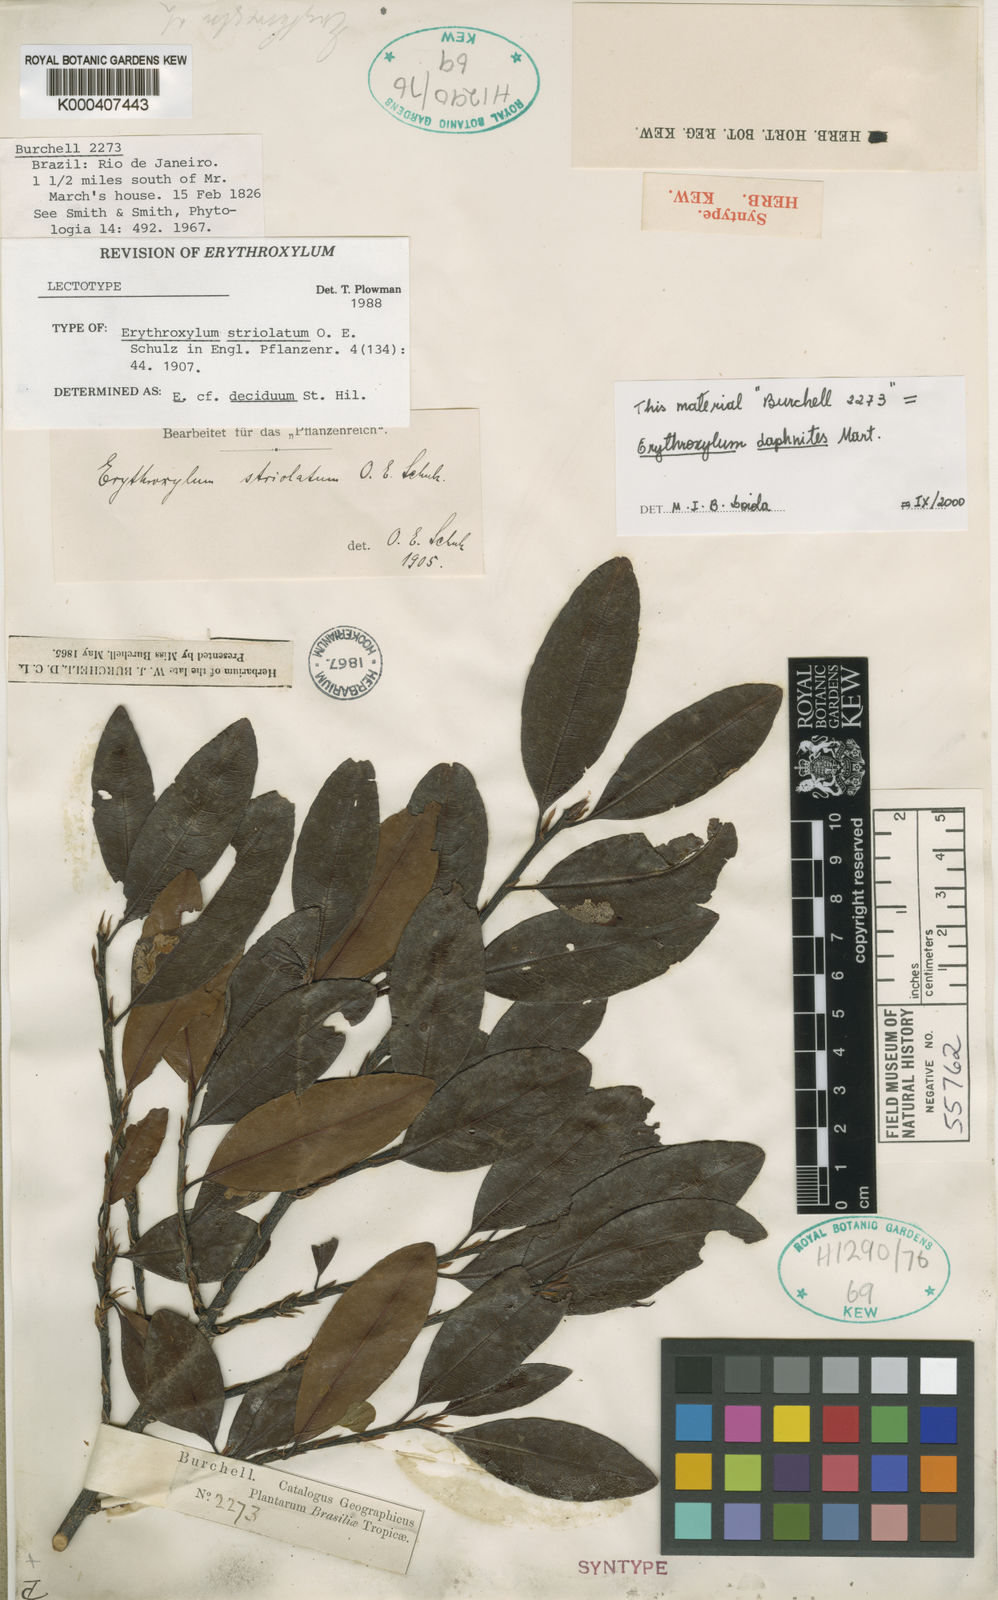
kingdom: Plantae
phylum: Tracheophyta
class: Magnoliopsida
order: Malpighiales
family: Erythroxylaceae
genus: Erythroxylum
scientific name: Erythroxylum daphnites
